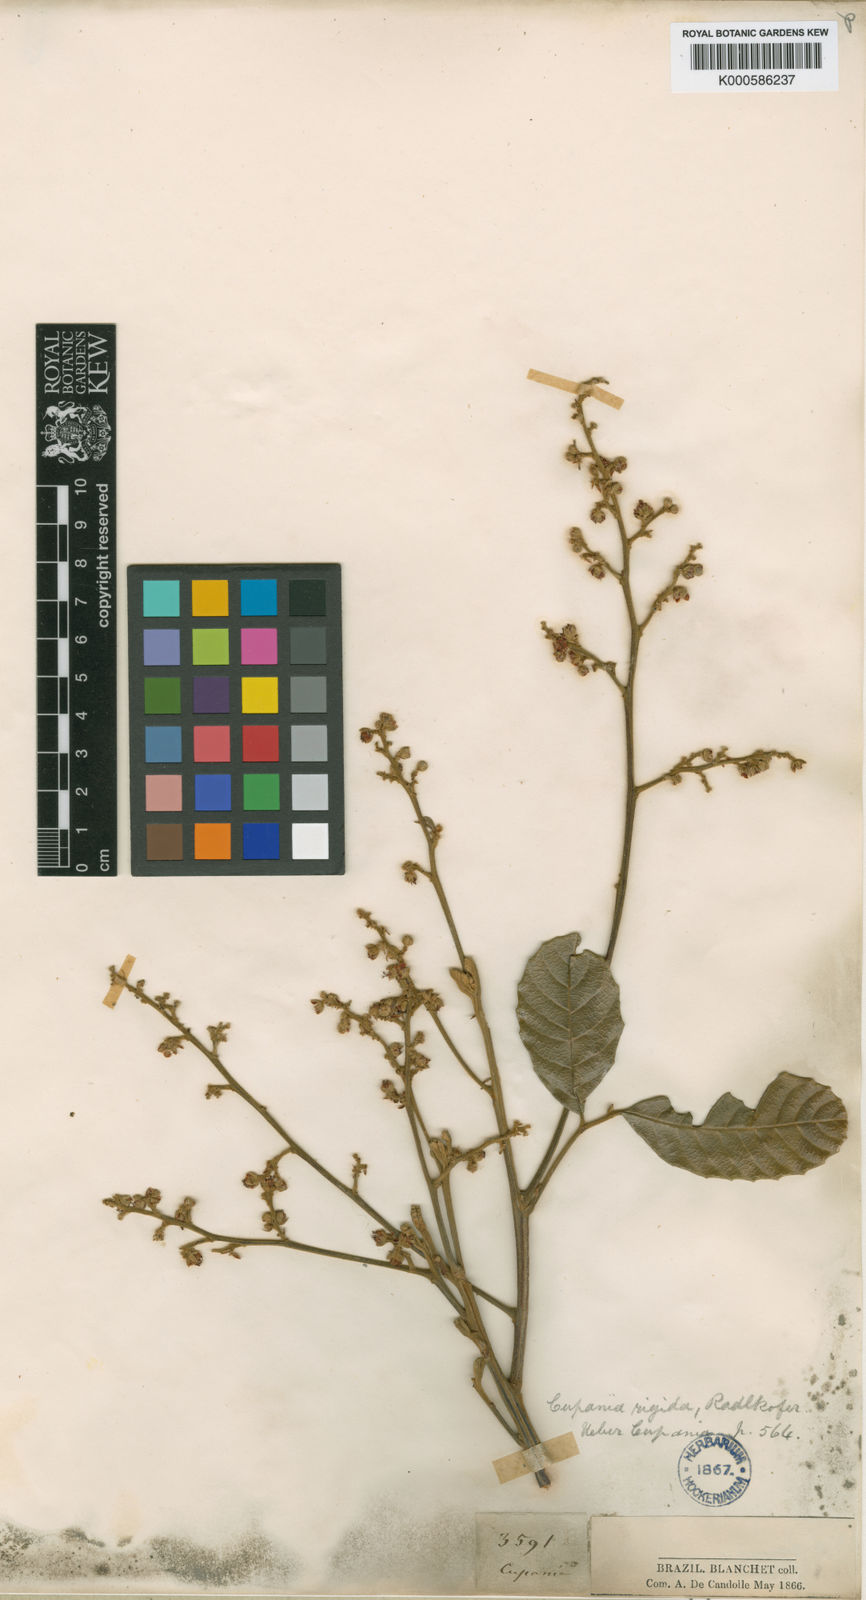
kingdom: Plantae
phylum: Tracheophyta
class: Magnoliopsida
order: Sapindales
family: Sapindaceae
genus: Cupania
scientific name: Cupania rigida
